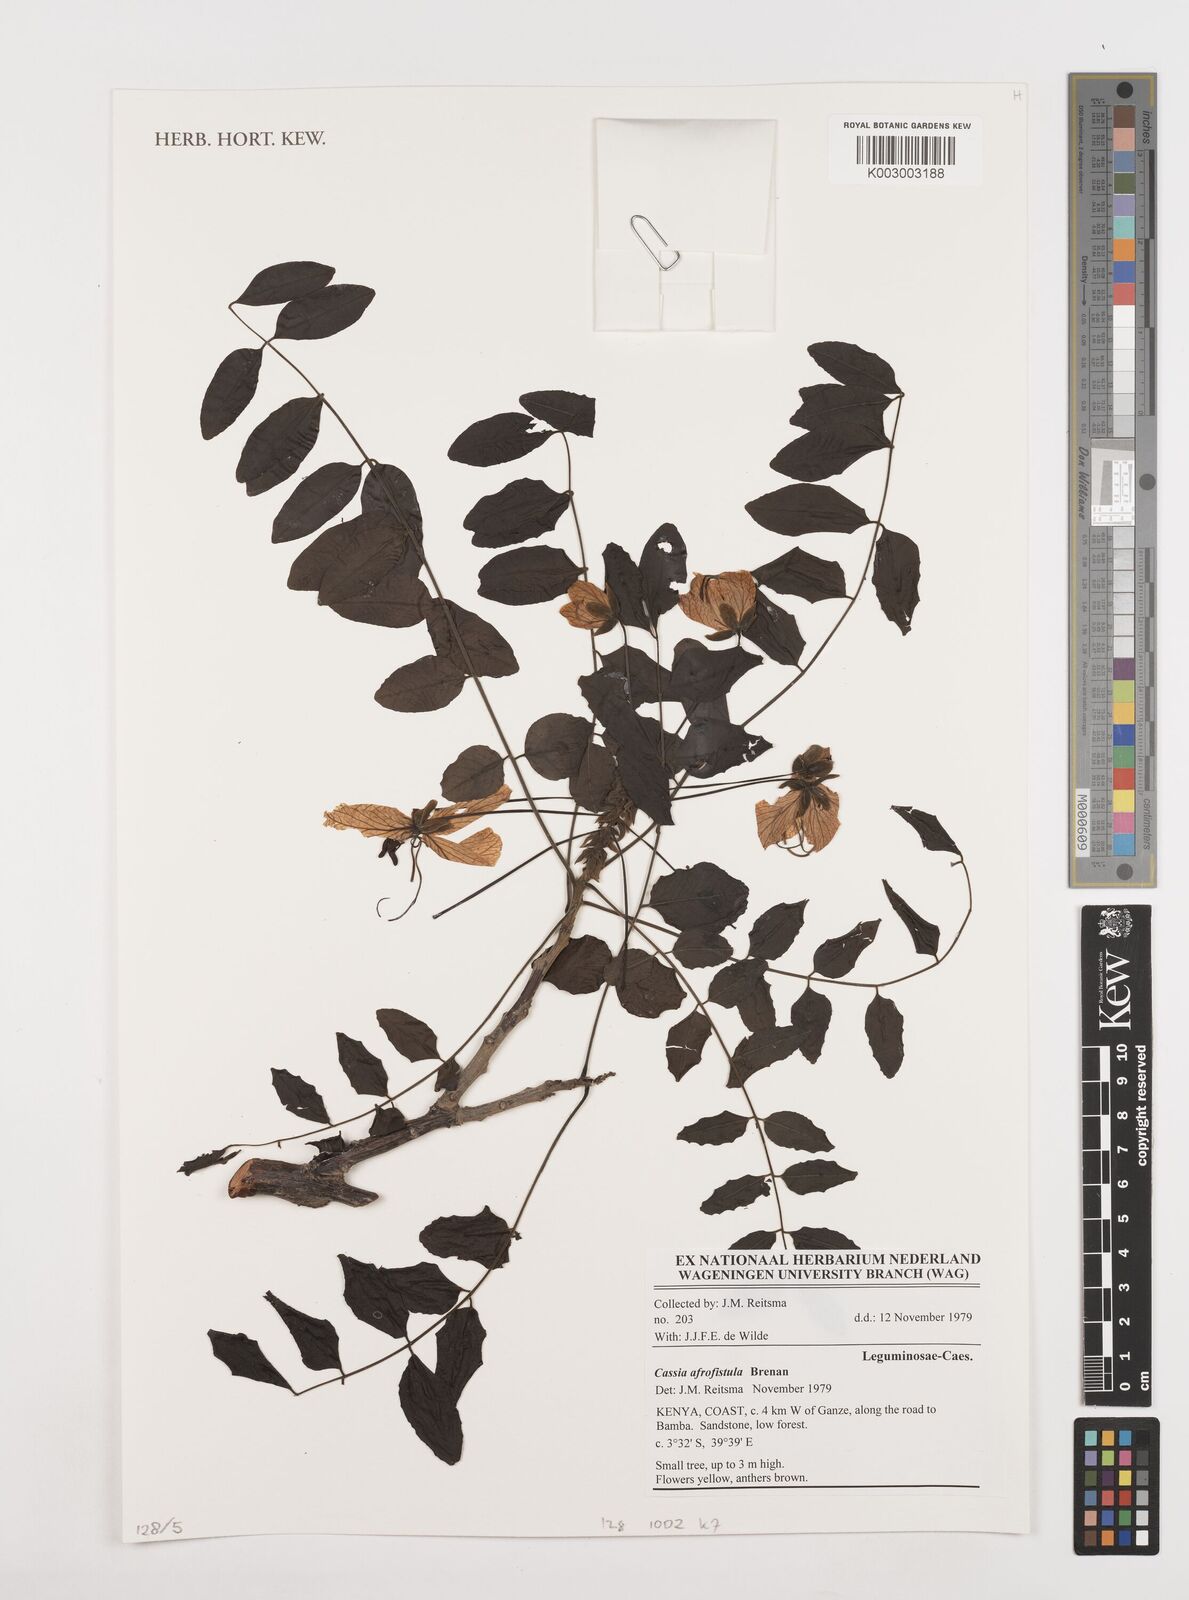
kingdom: Plantae
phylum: Tracheophyta
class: Magnoliopsida
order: Fabales
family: Fabaceae
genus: Cassia
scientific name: Cassia afrofistula
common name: Kenyan shower
